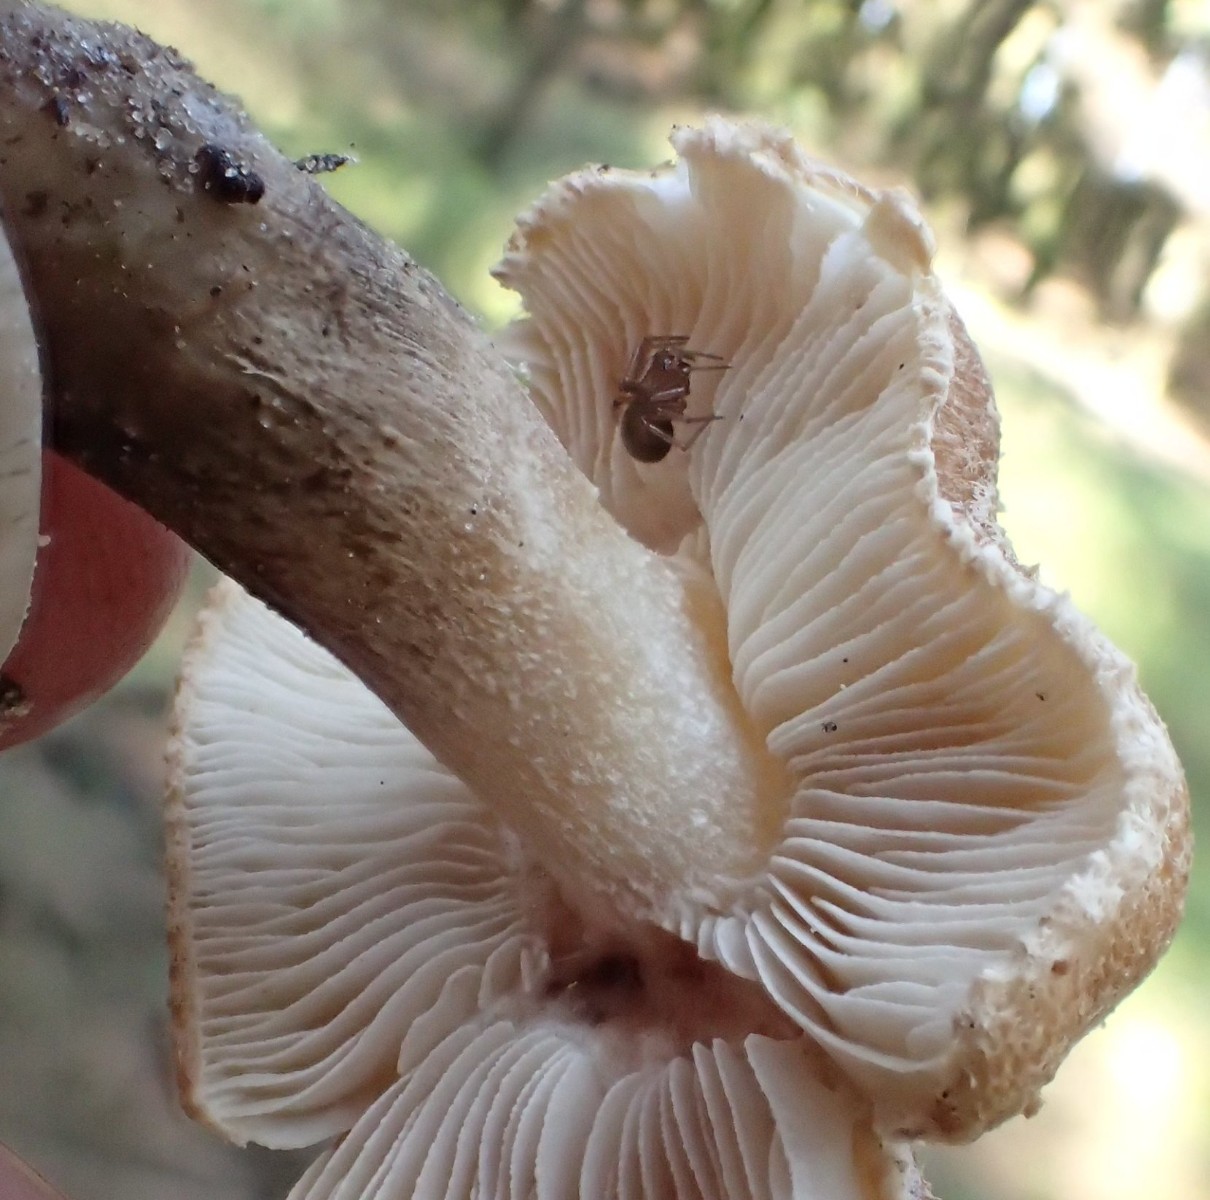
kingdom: Fungi
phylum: Basidiomycota
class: Agaricomycetes
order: Agaricales
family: Inocybaceae
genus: Inocybe
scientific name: Inocybe melanopoda
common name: sortfodet trævlhat
